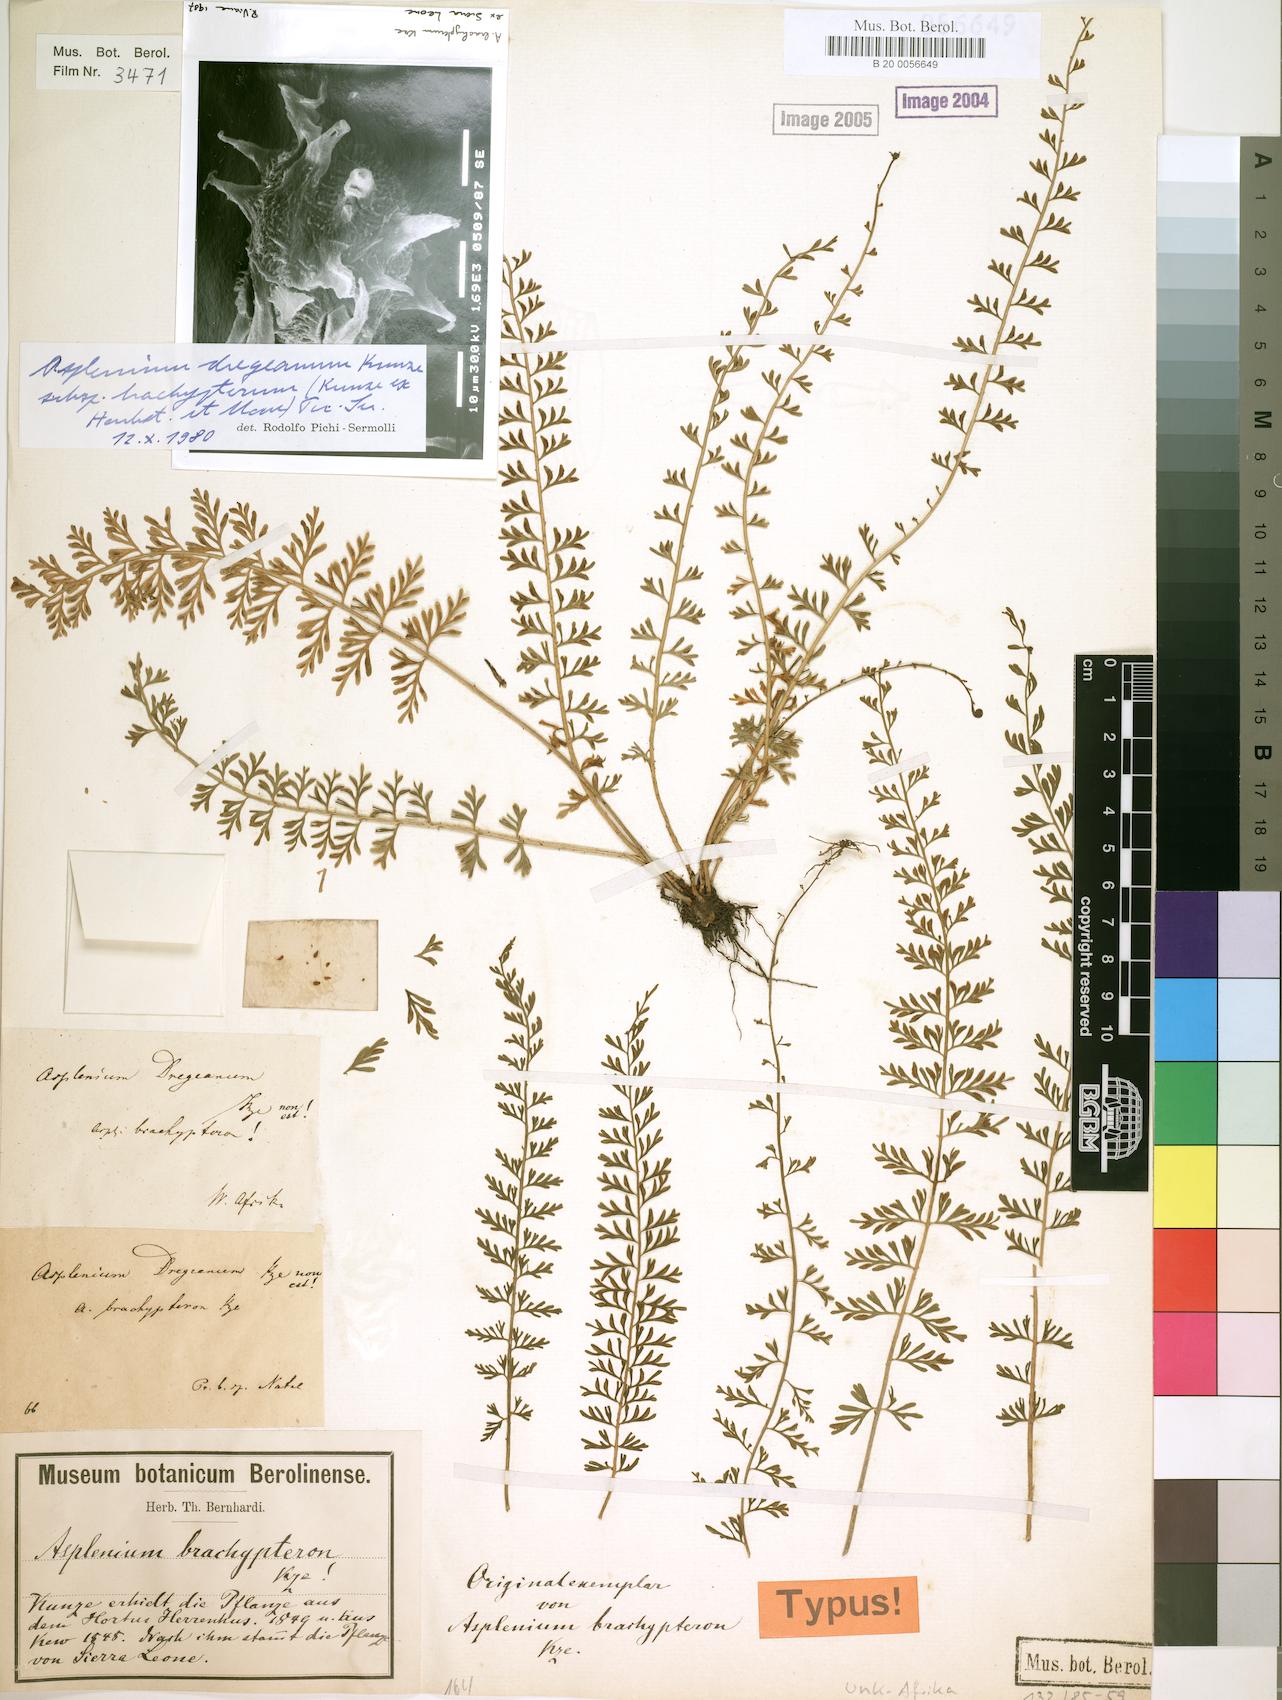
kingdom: Plantae
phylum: Tracheophyta
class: Polypodiopsida
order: Polypodiales
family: Aspleniaceae
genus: Asplenium
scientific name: Asplenium dregeanum
